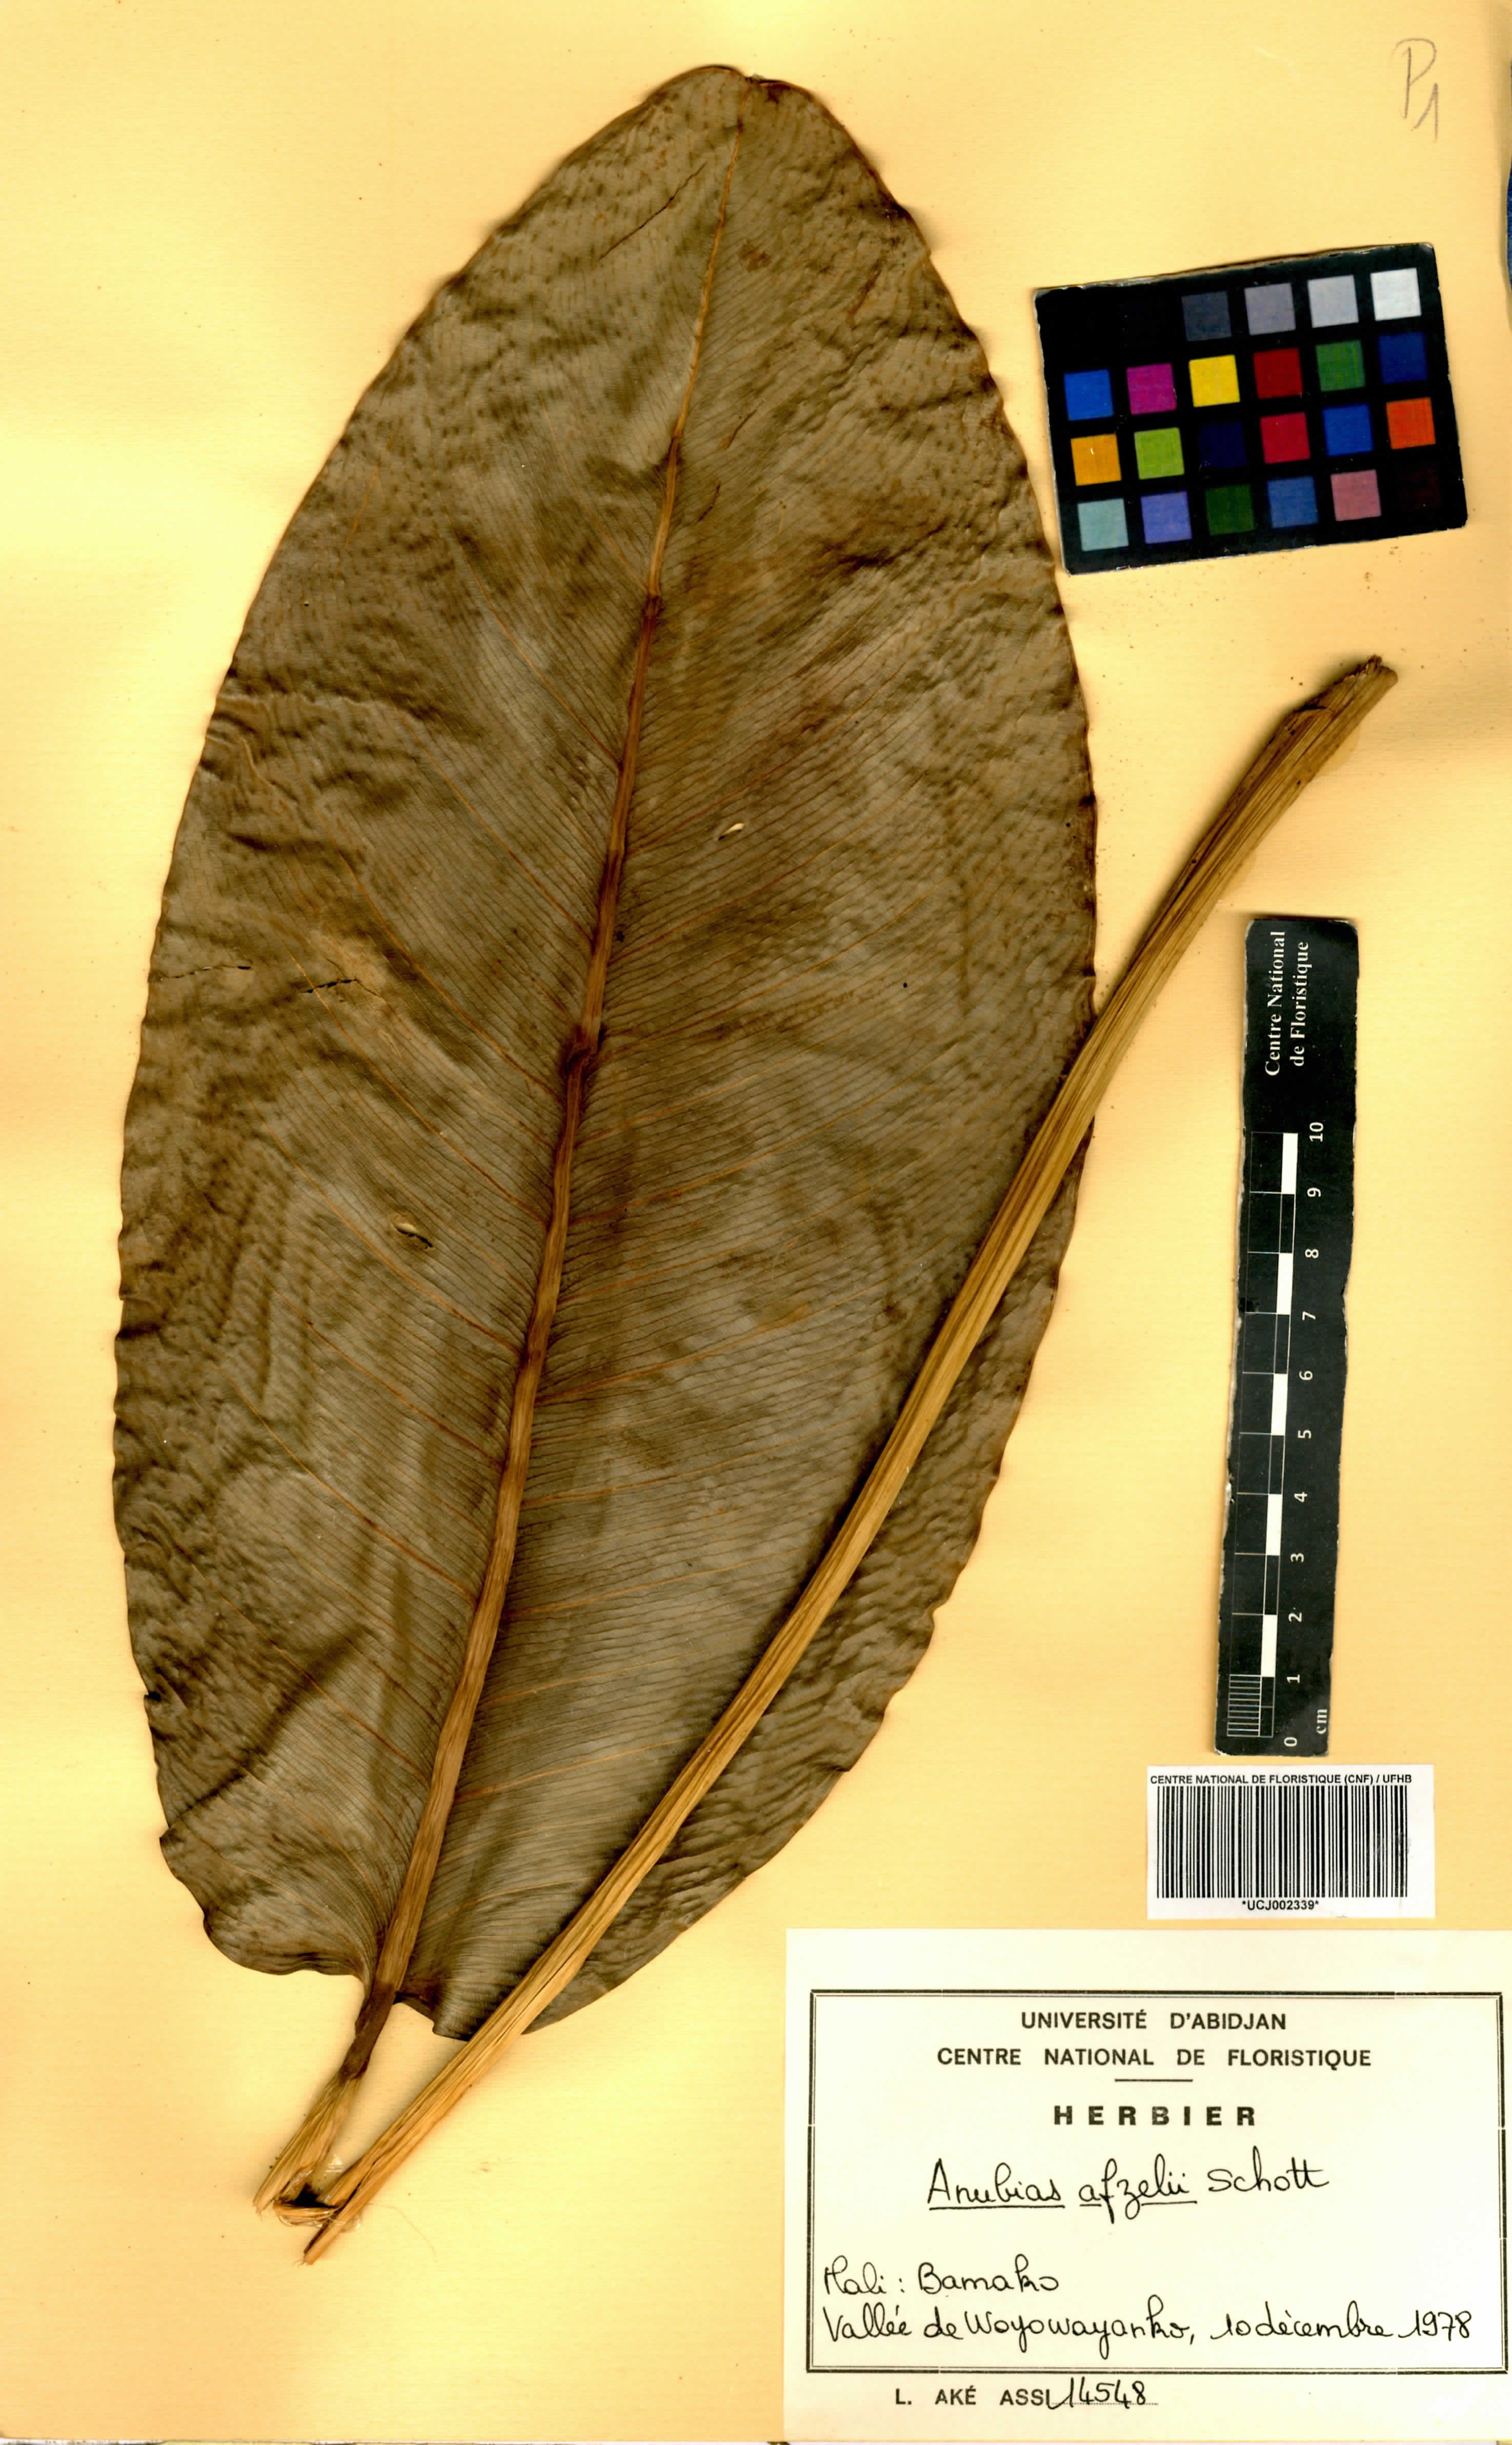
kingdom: Plantae
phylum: Tracheophyta
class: Liliopsida
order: Alismatales
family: Araceae
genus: Anubias
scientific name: Anubias afzelii
